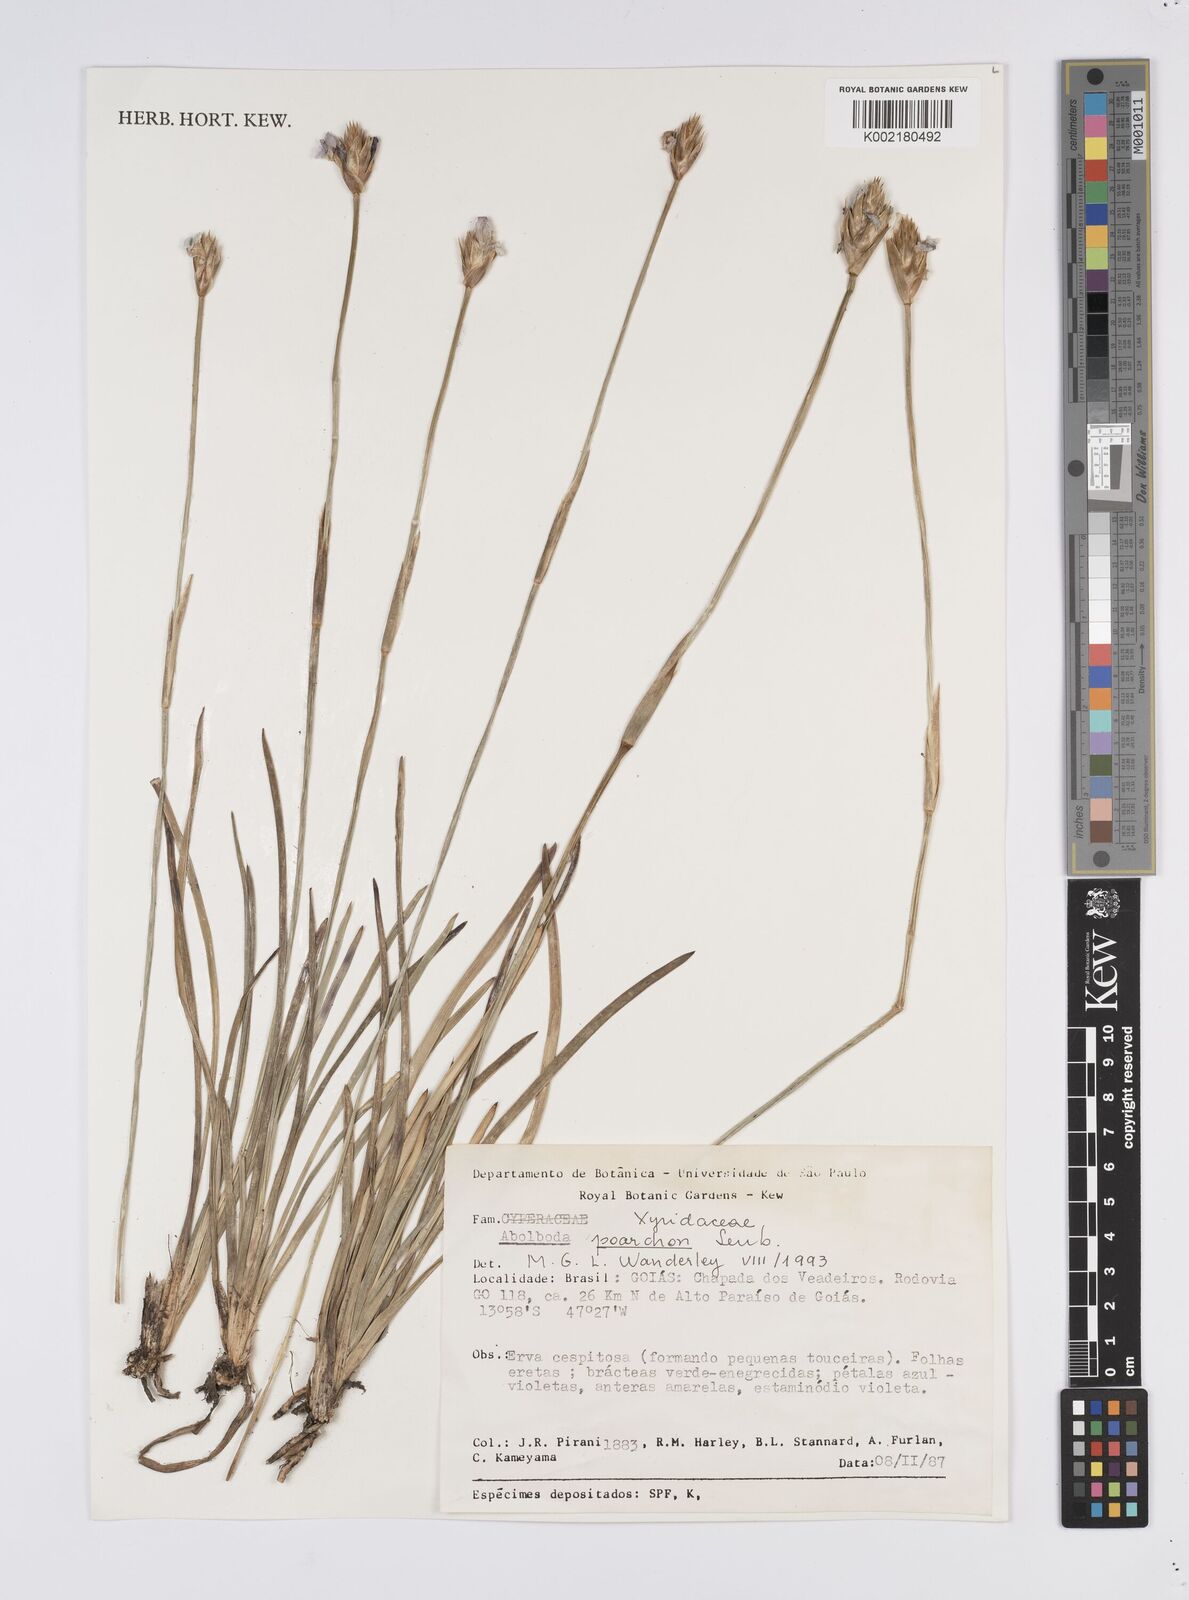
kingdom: Plantae
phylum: Tracheophyta
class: Liliopsida
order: Poales
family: Xyridaceae
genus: Abolboda
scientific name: Abolboda poarchon
